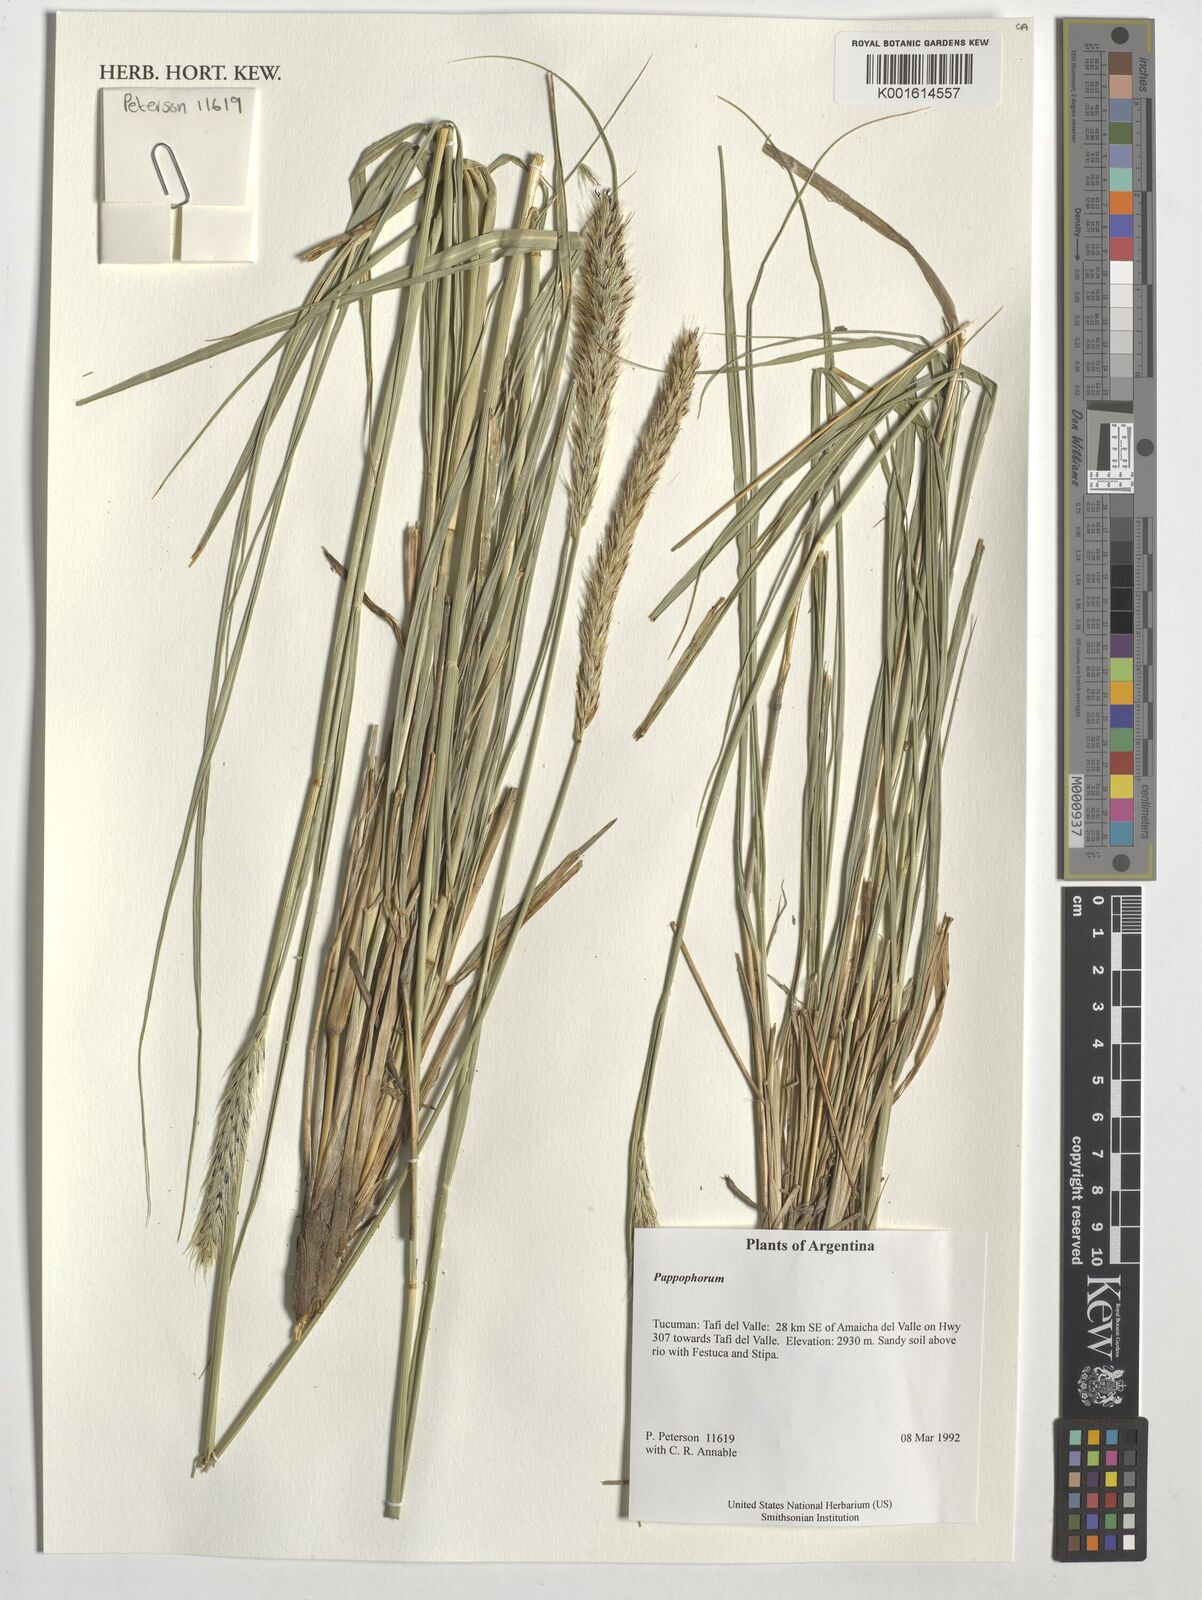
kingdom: Plantae
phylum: Tracheophyta
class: Liliopsida
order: Poales
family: Poaceae
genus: Pappophorum
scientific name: Pappophorum
